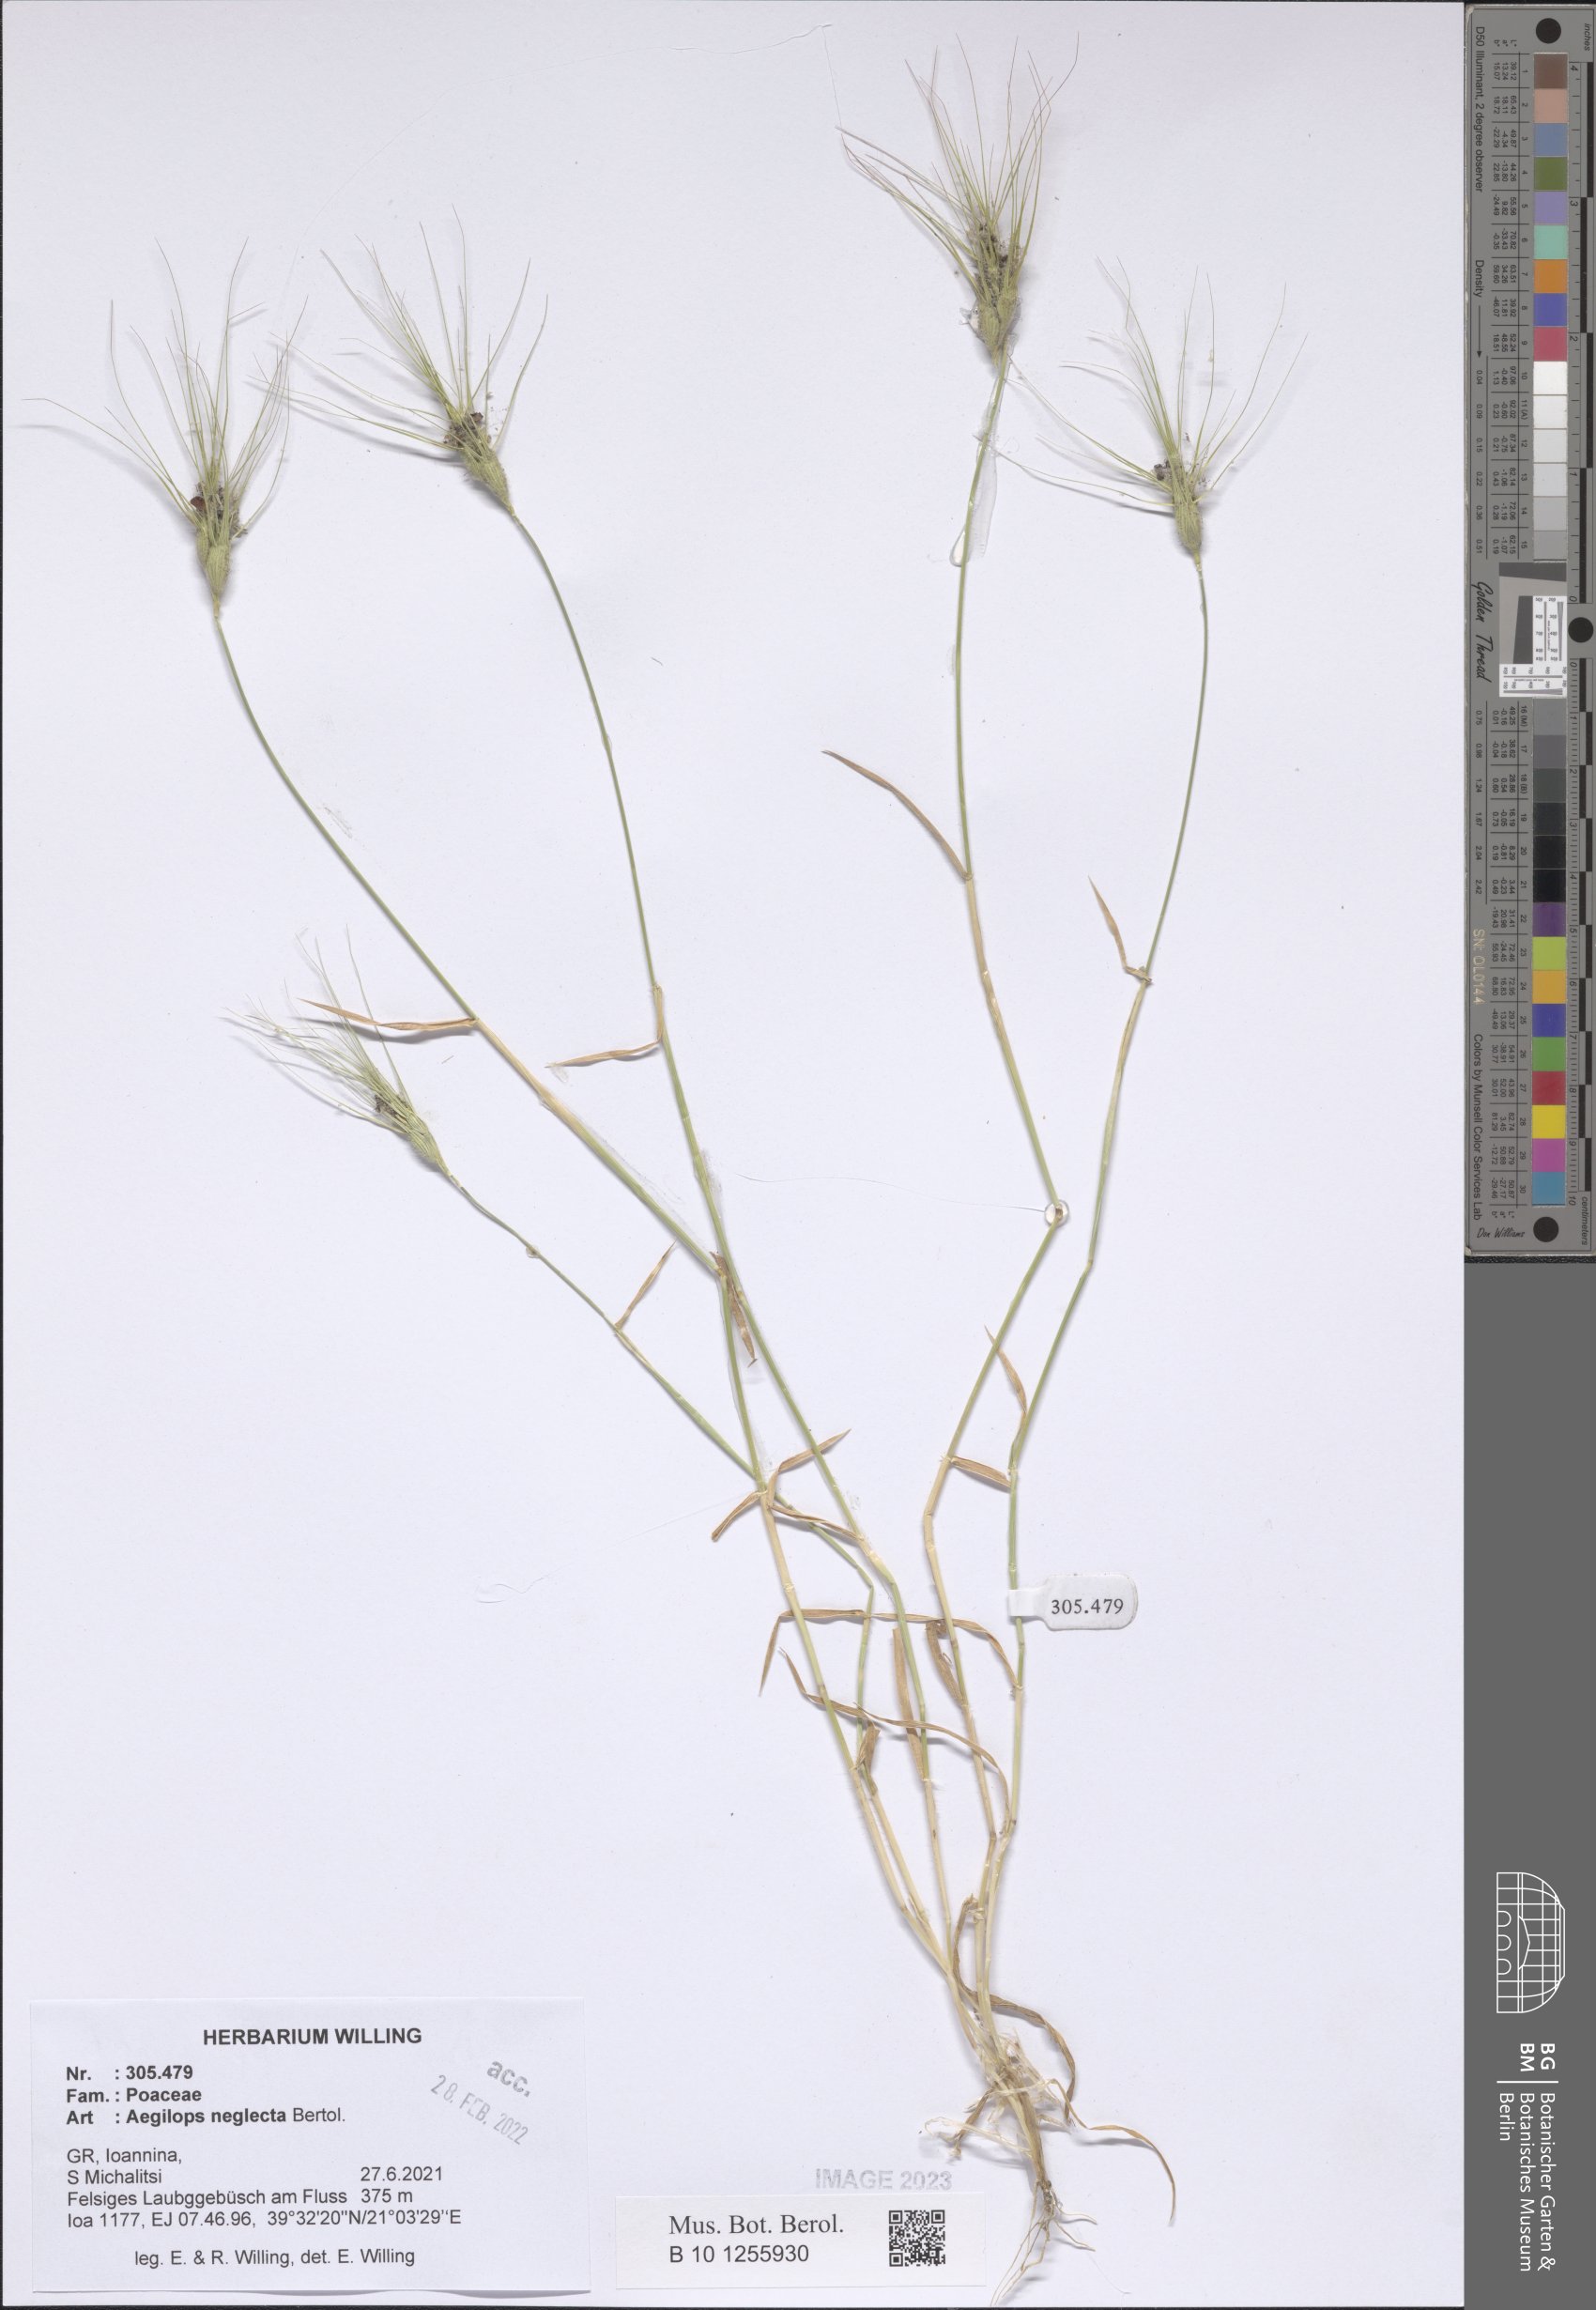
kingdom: Plantae
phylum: Tracheophyta
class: Liliopsida
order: Poales
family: Poaceae
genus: Aegilops
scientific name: Aegilops neglecta
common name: Three-awn goat grass
